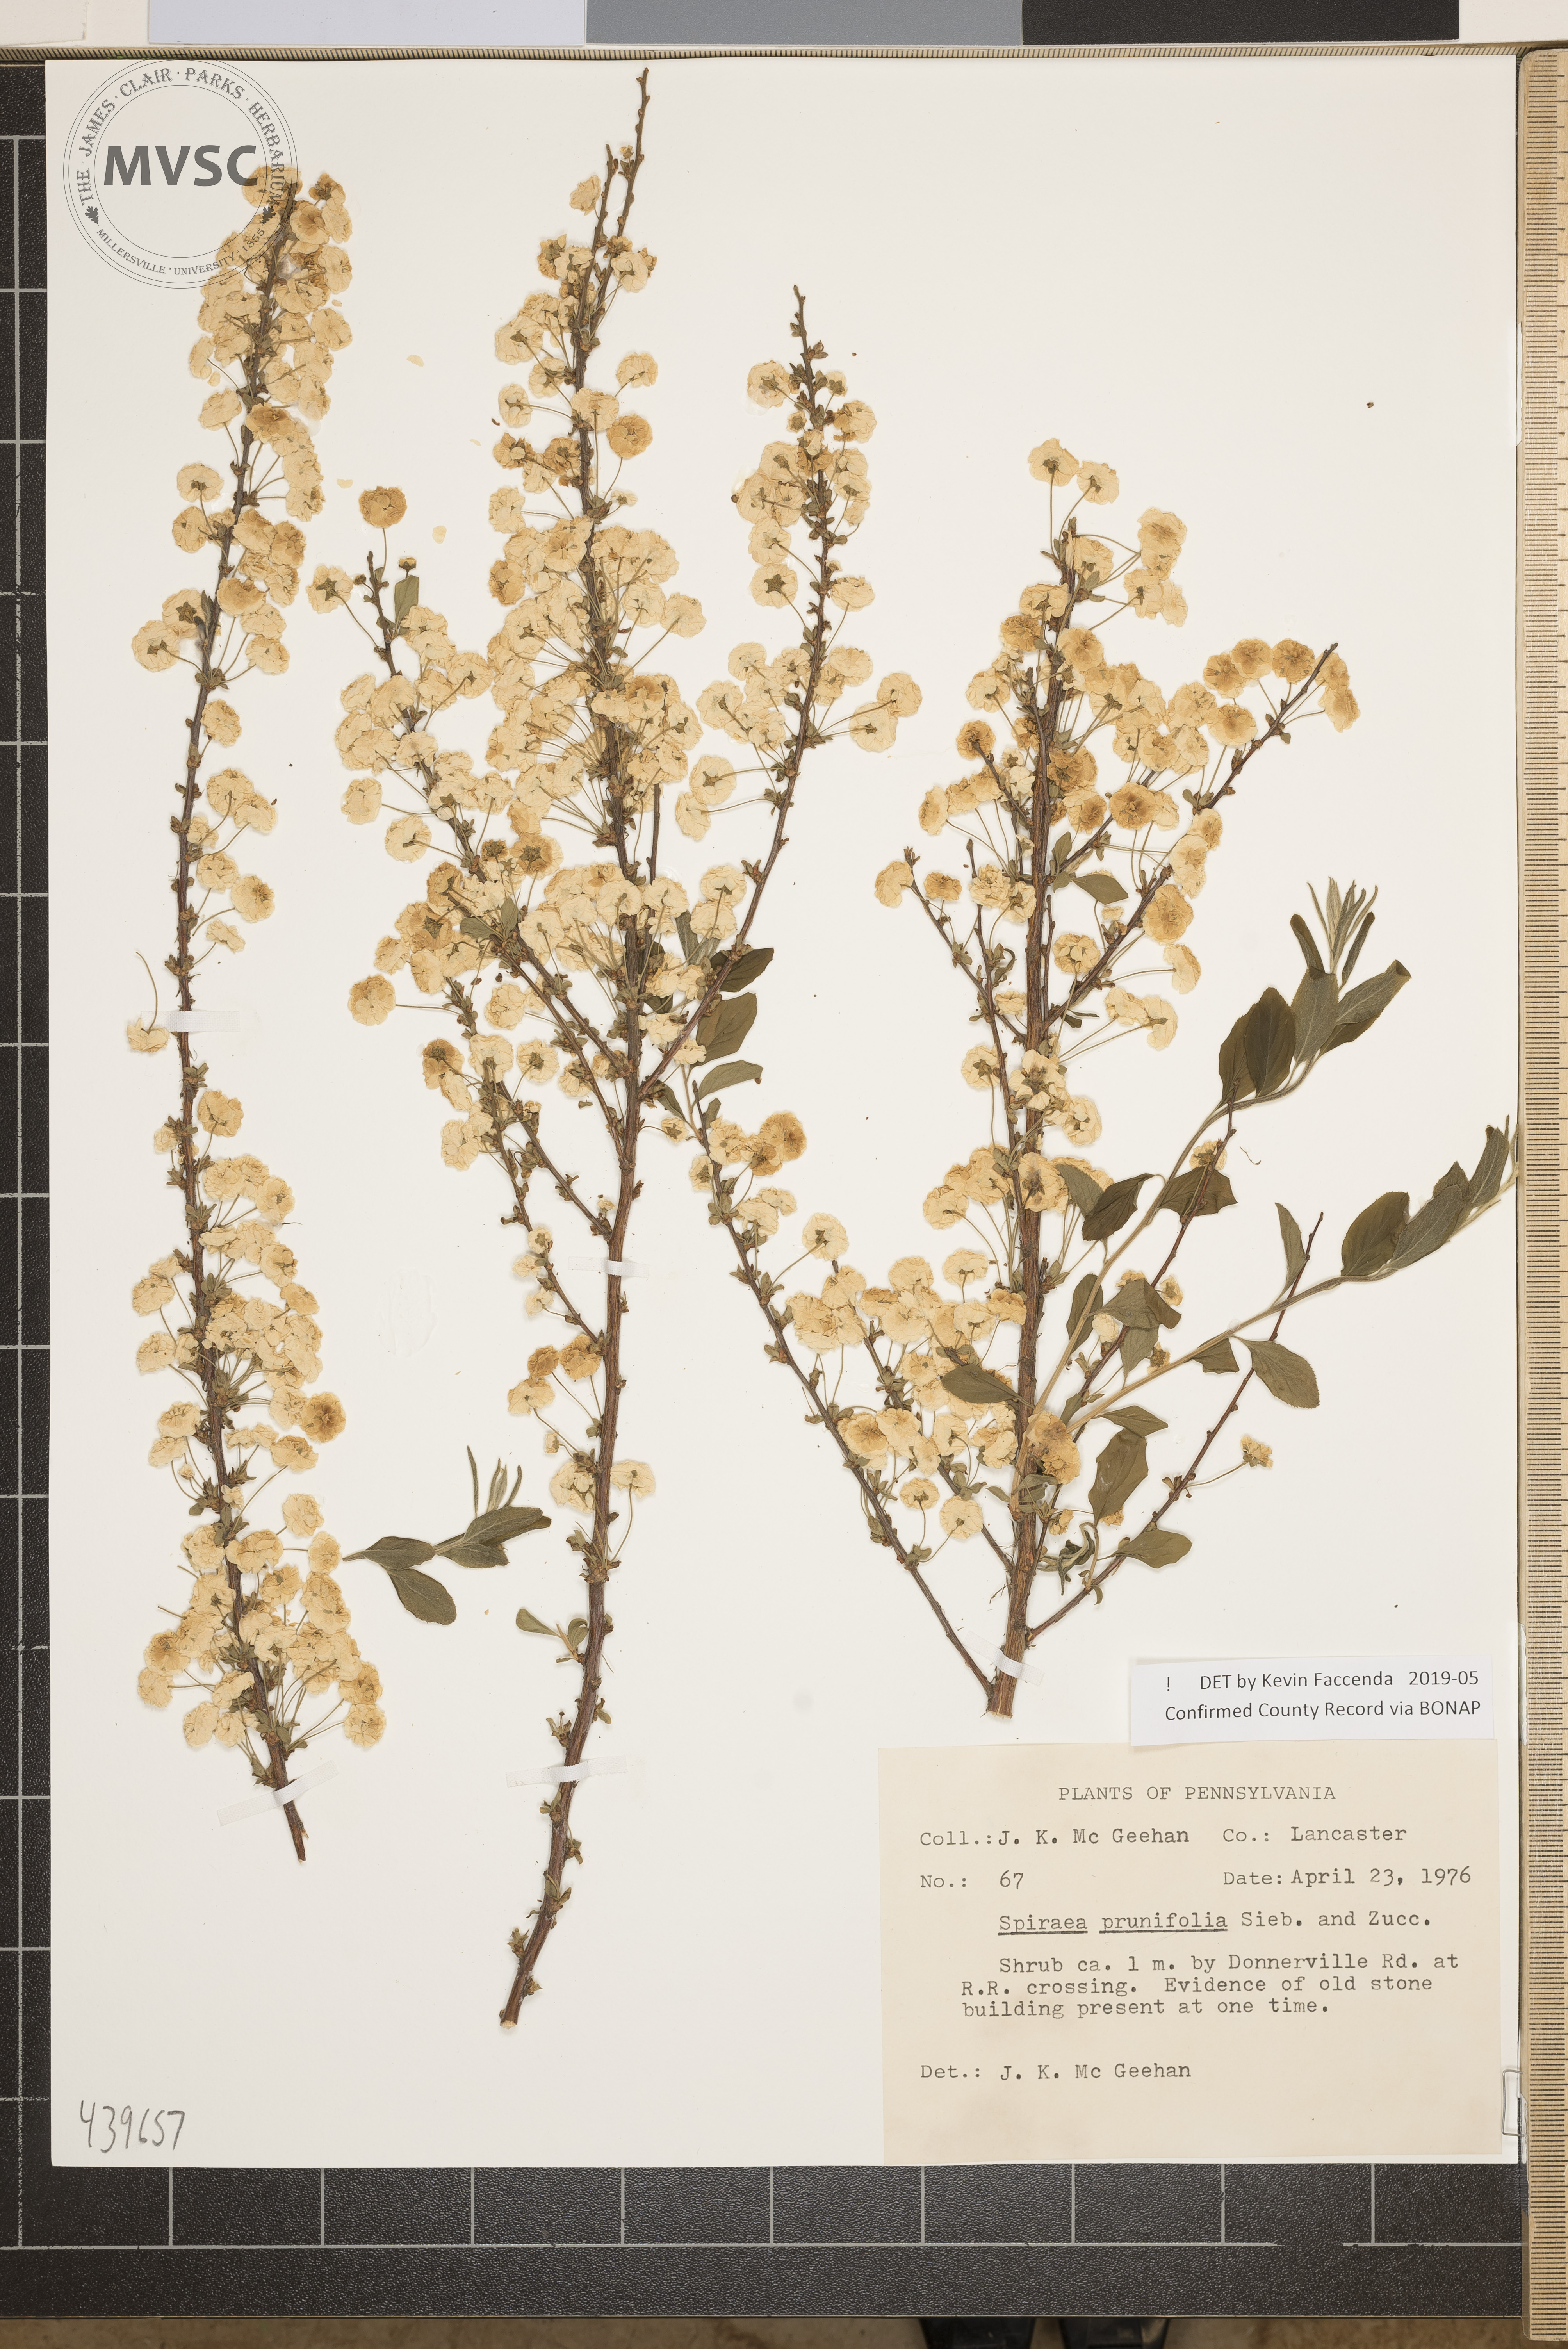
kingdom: Plantae
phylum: Tracheophyta
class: Magnoliopsida
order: Rosales
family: Rosaceae
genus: Spiraea
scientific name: Spiraea prunifolia
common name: Bridal-wreath spiraea
